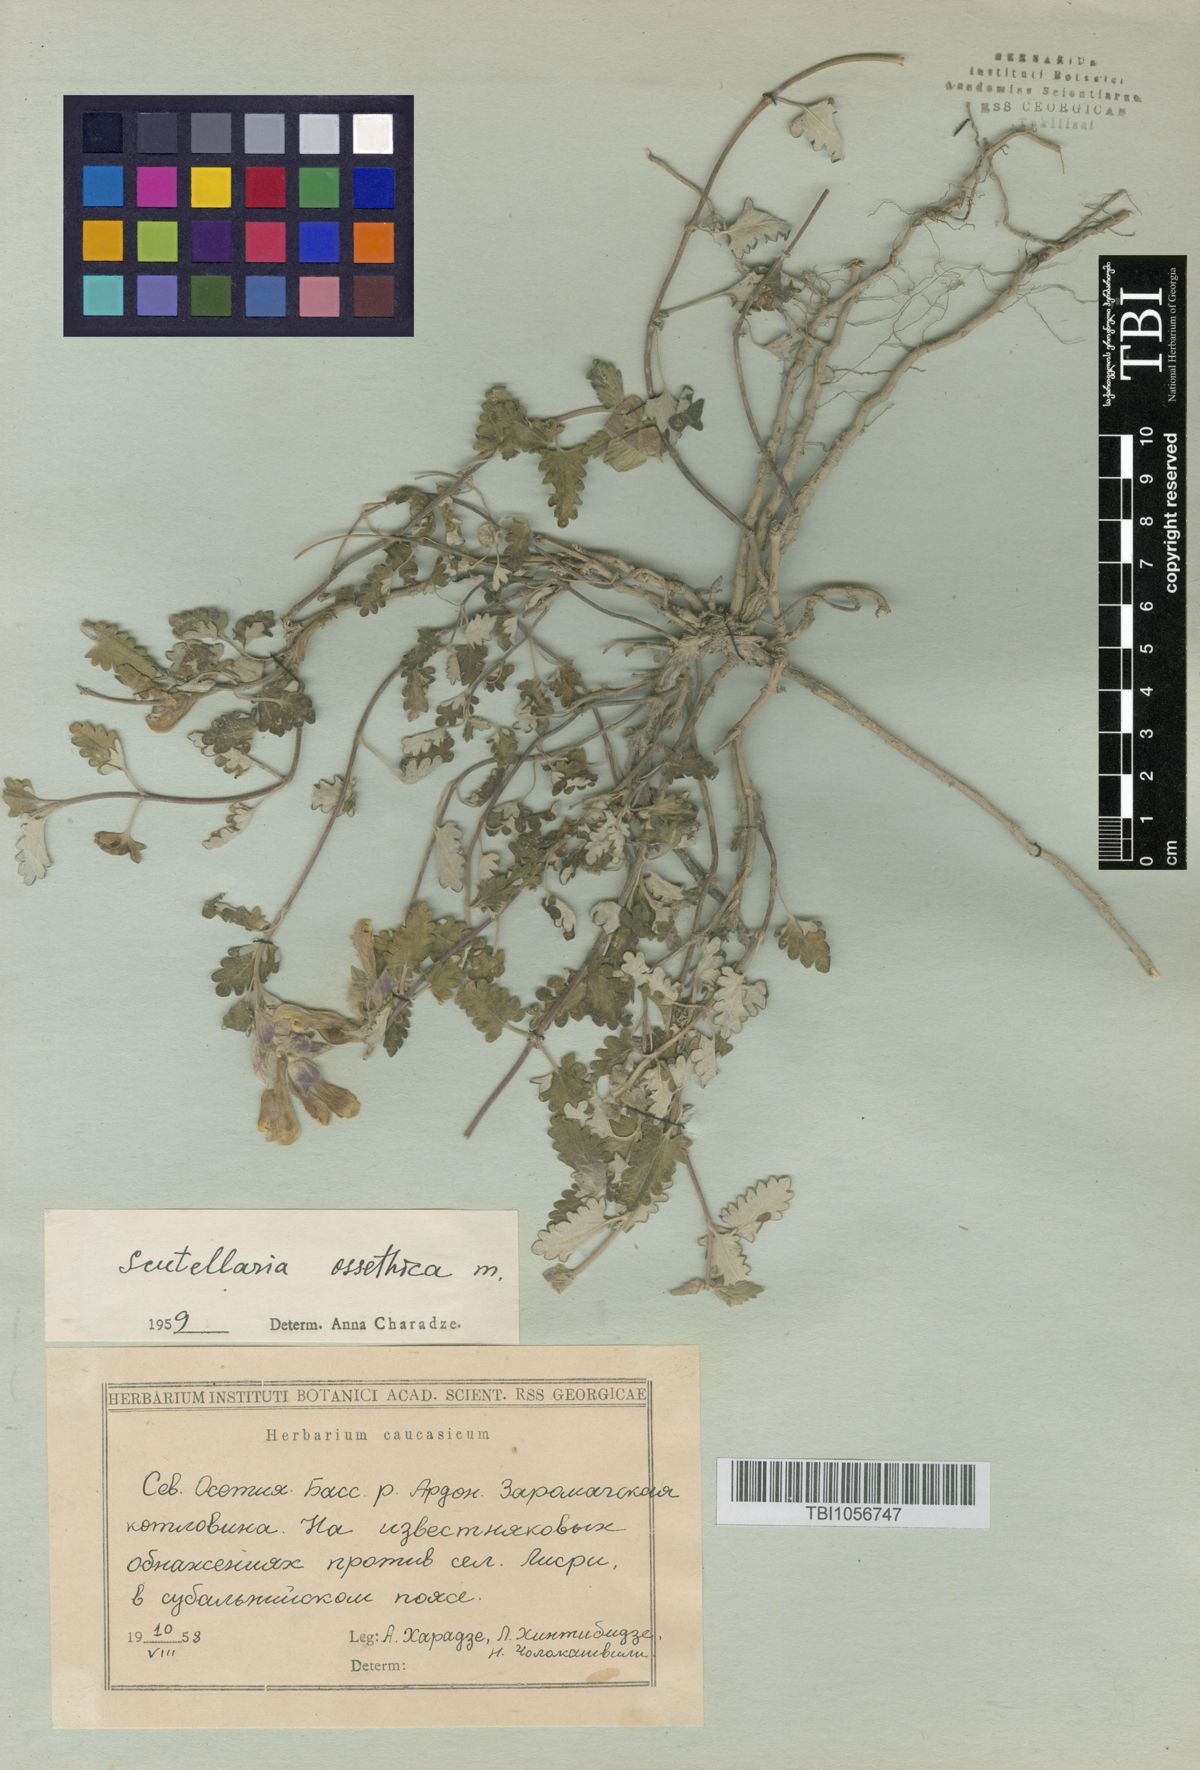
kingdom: Plantae
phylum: Tracheophyta
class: Magnoliopsida
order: Lamiales
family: Lamiaceae
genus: Scutellaria
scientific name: Scutellaria ossethica
